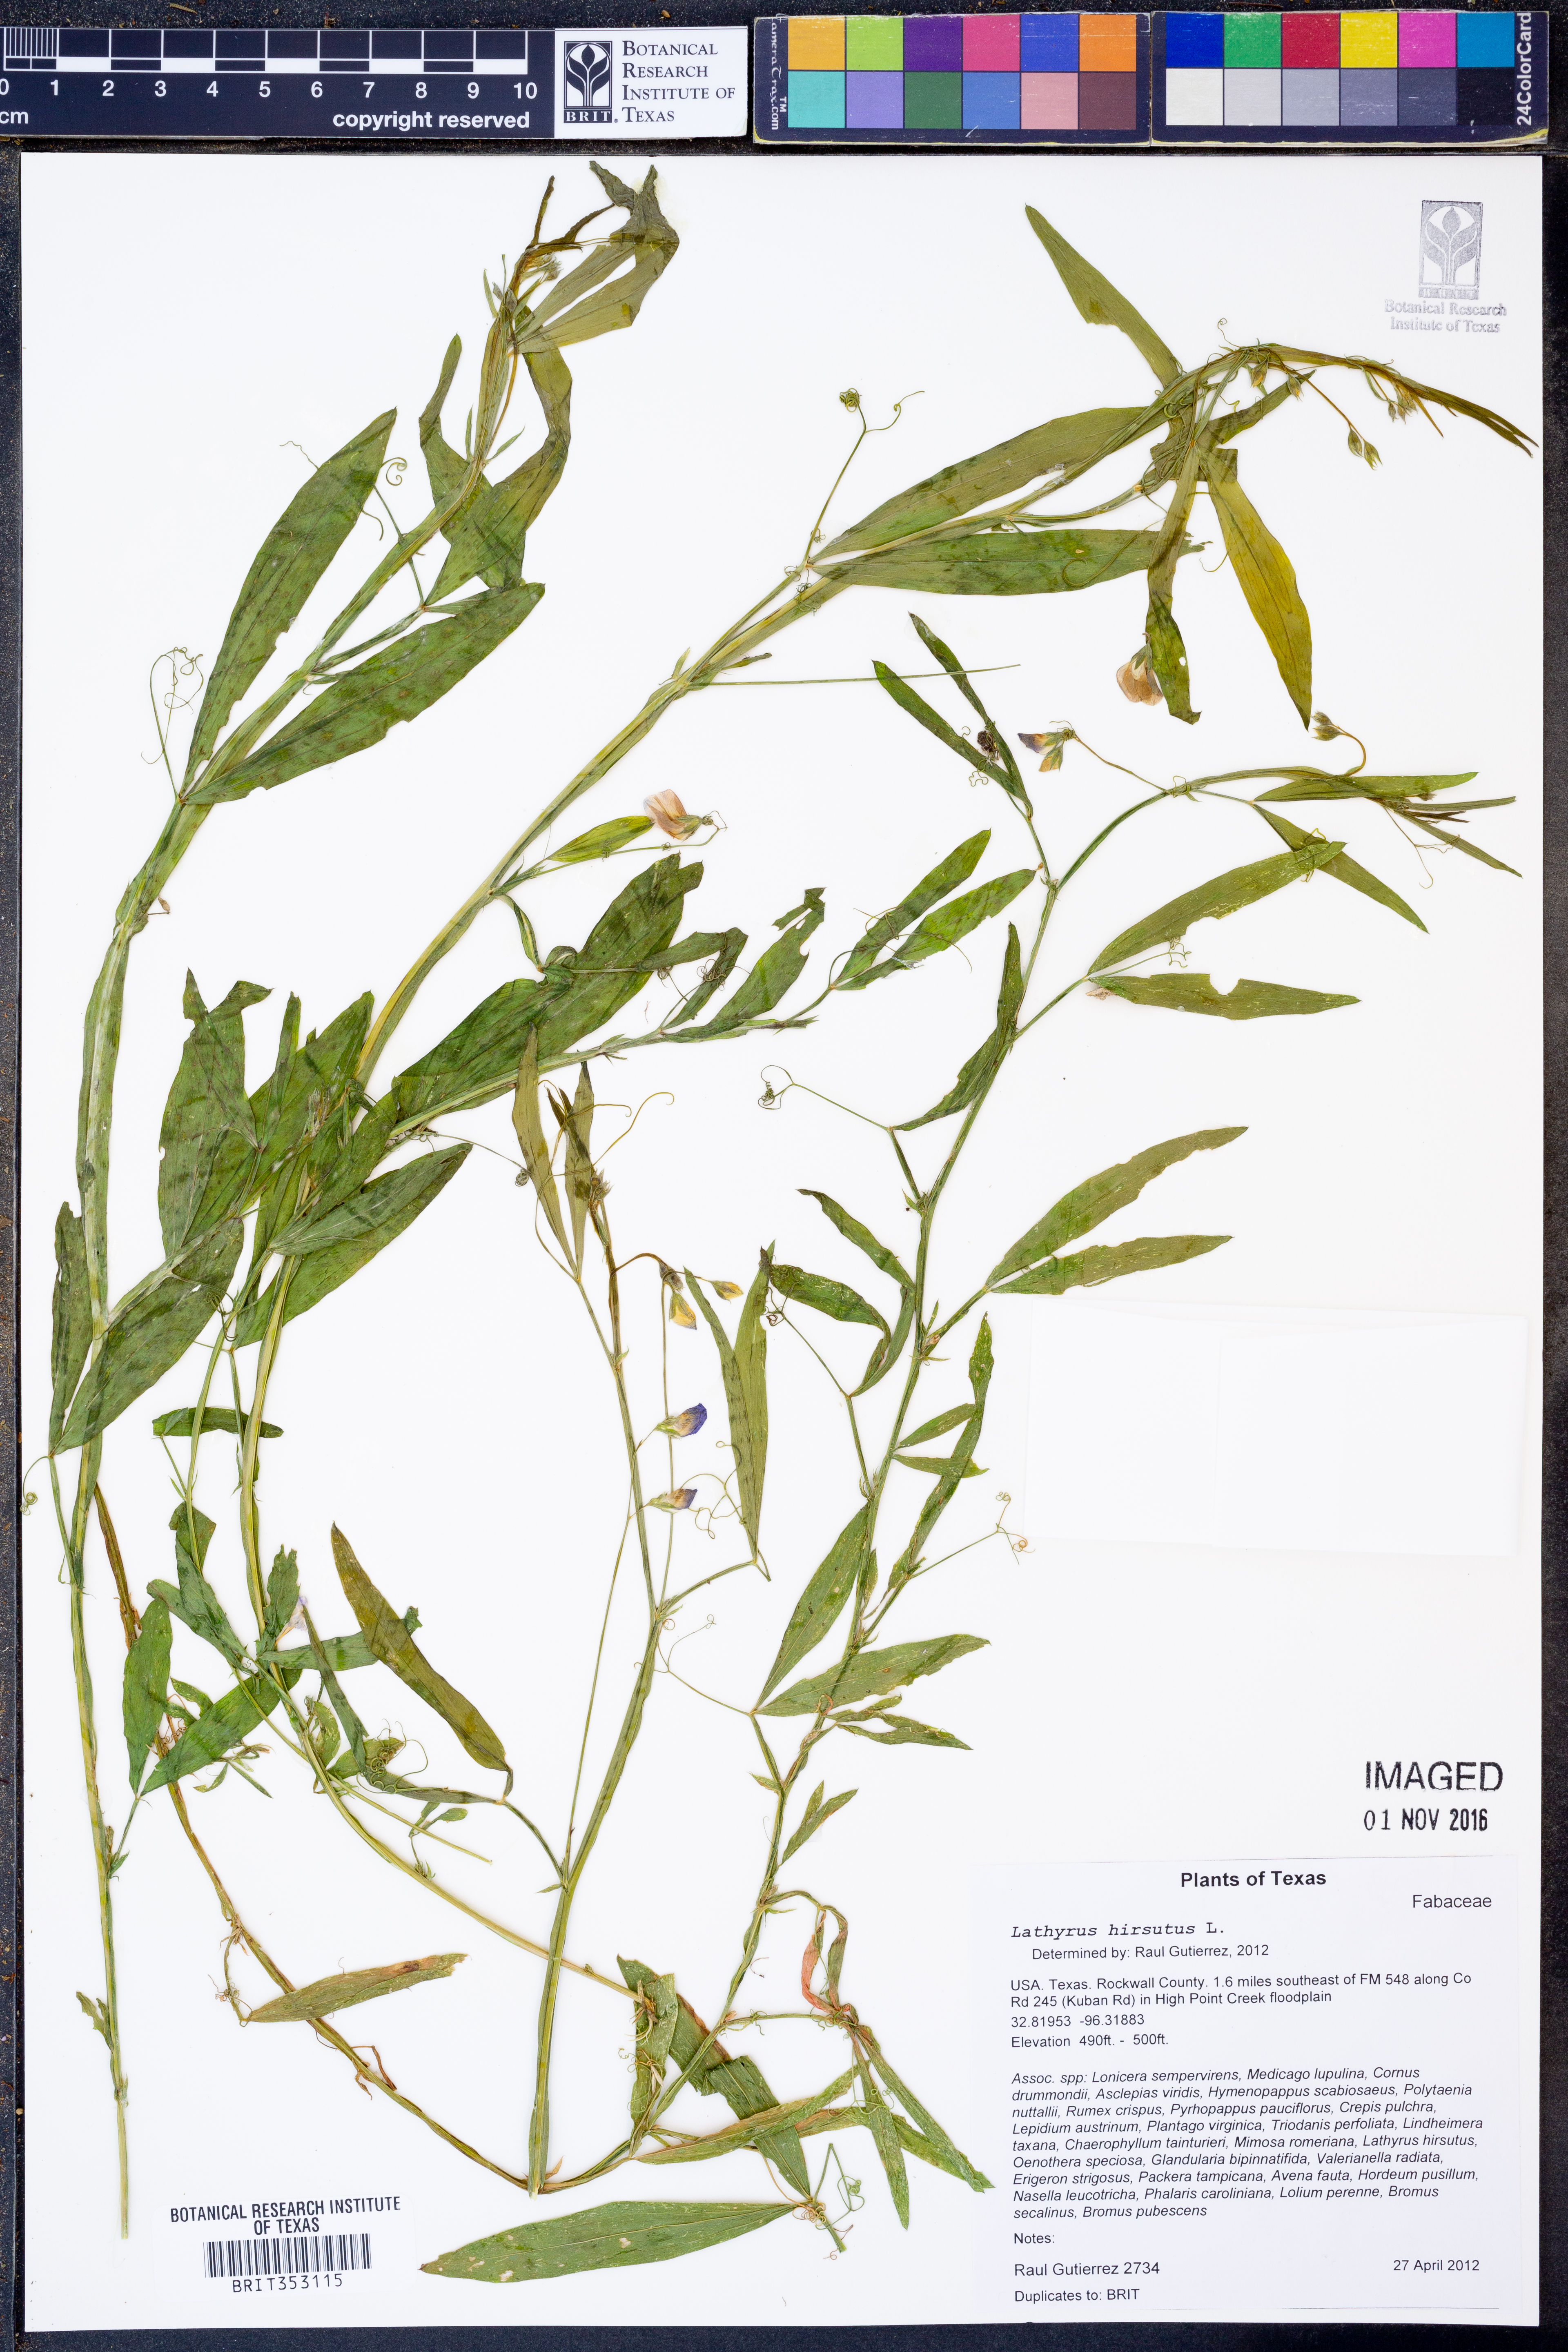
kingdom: Plantae
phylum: Tracheophyta
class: Magnoliopsida
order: Fabales
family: Fabaceae
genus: Lathyrus
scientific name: Lathyrus hirsutus
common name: Hairy vetchling
